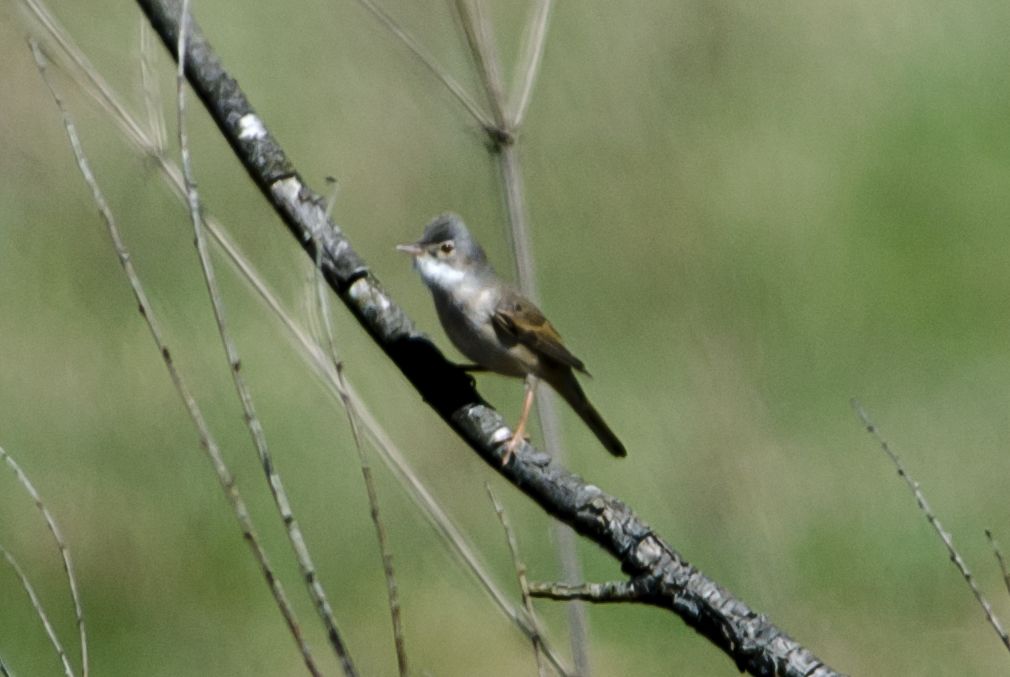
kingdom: Animalia
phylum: Chordata
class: Aves
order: Passeriformes
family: Sylviidae
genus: Sylvia
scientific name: Sylvia communis
